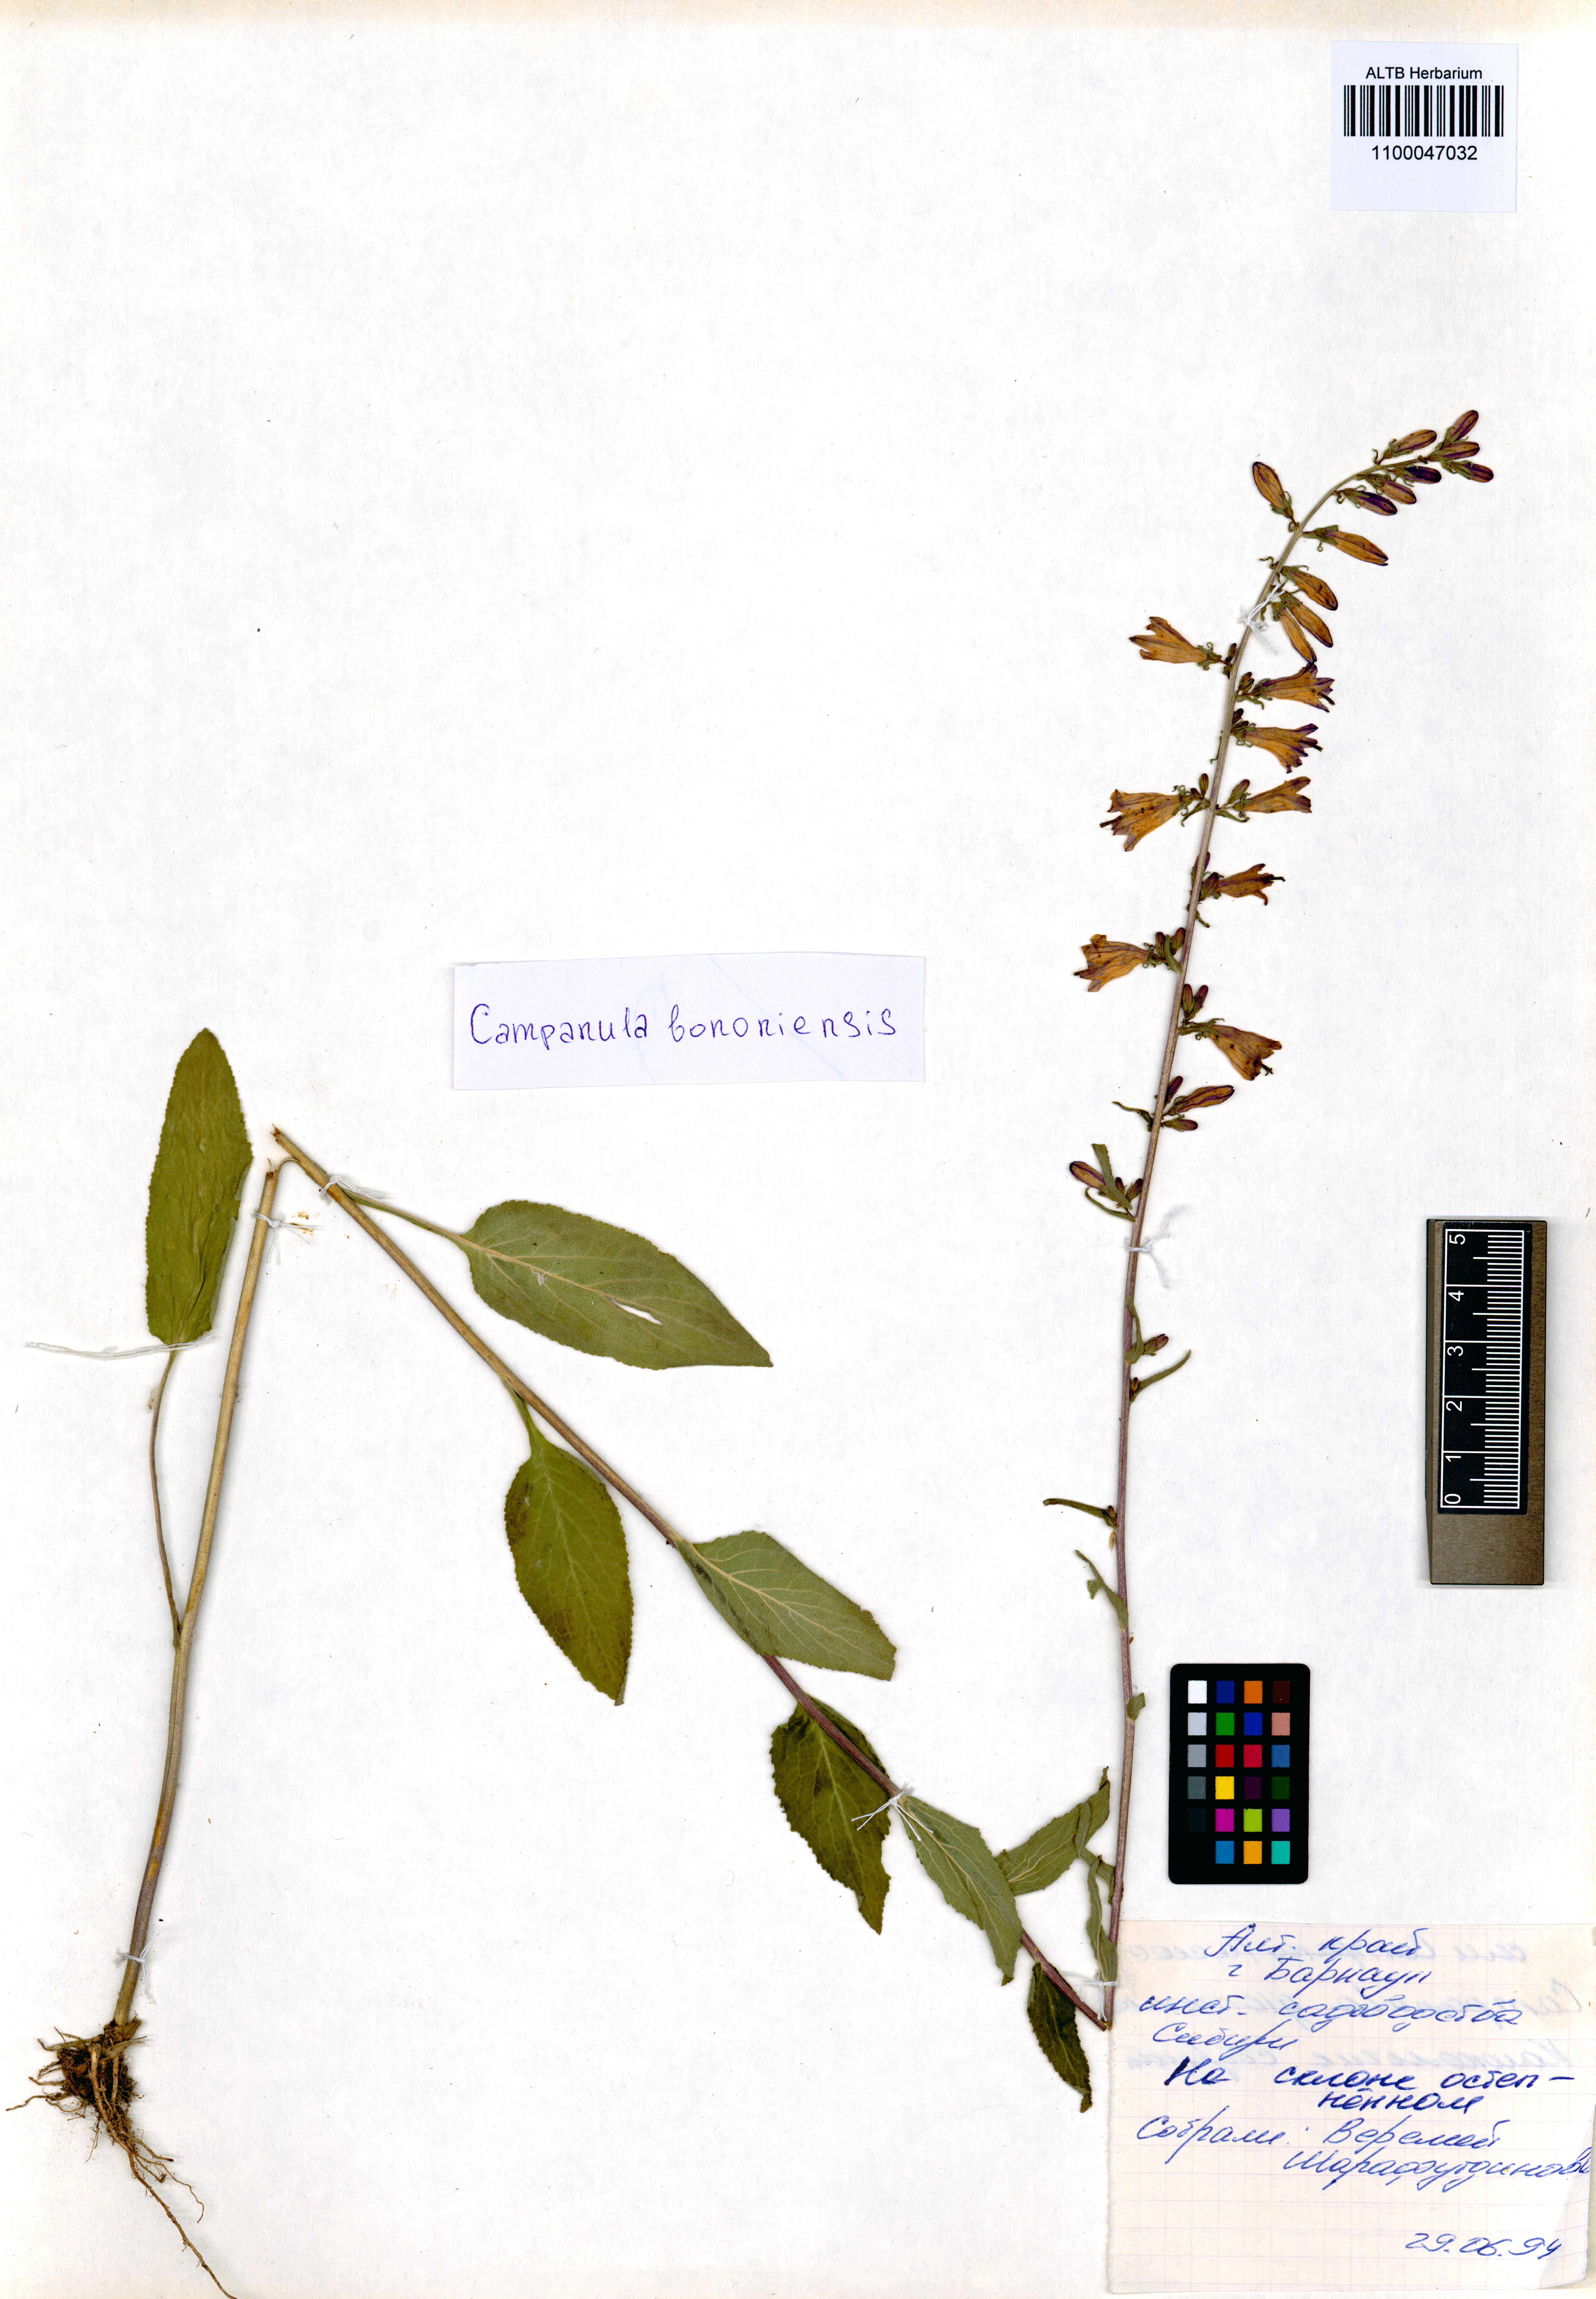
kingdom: Plantae
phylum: Tracheophyta
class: Magnoliopsida
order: Asterales
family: Campanulaceae
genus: Campanula
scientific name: Campanula bononiensis
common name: Pale bellflower
